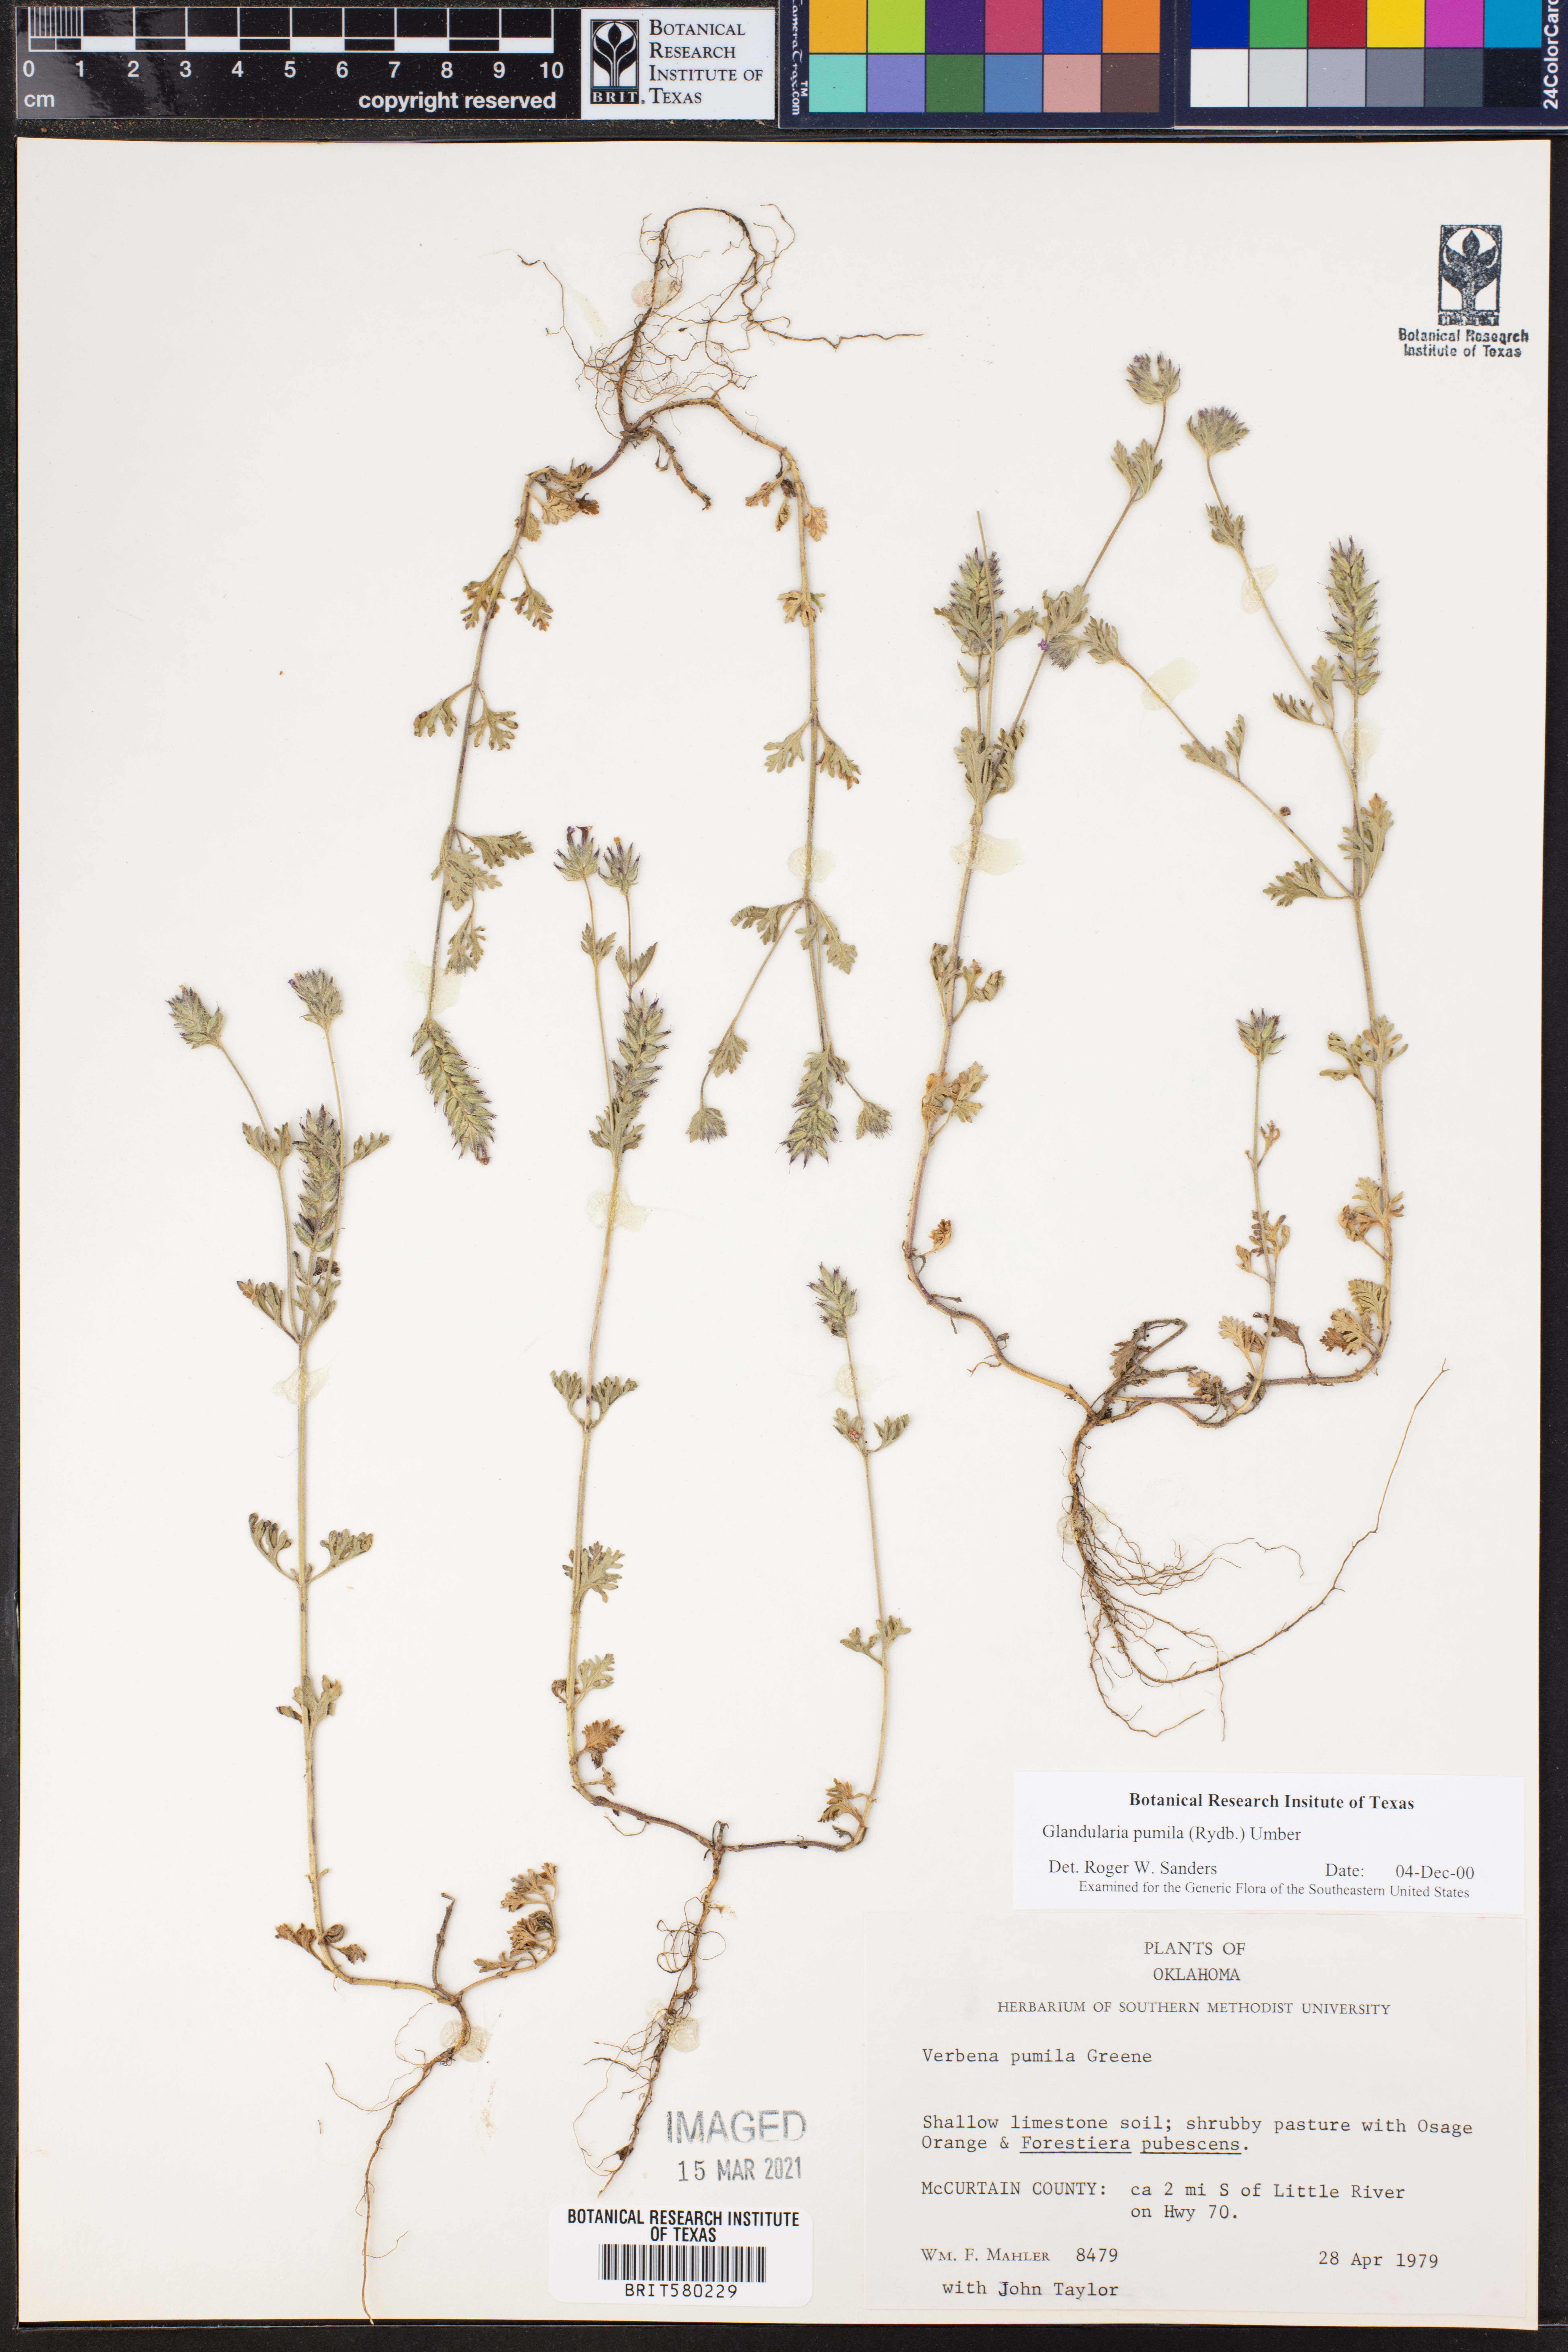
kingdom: Plantae
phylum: Tracheophyta
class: Magnoliopsida
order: Lamiales
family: Verbenaceae
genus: Verbena
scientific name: Verbena pumila
